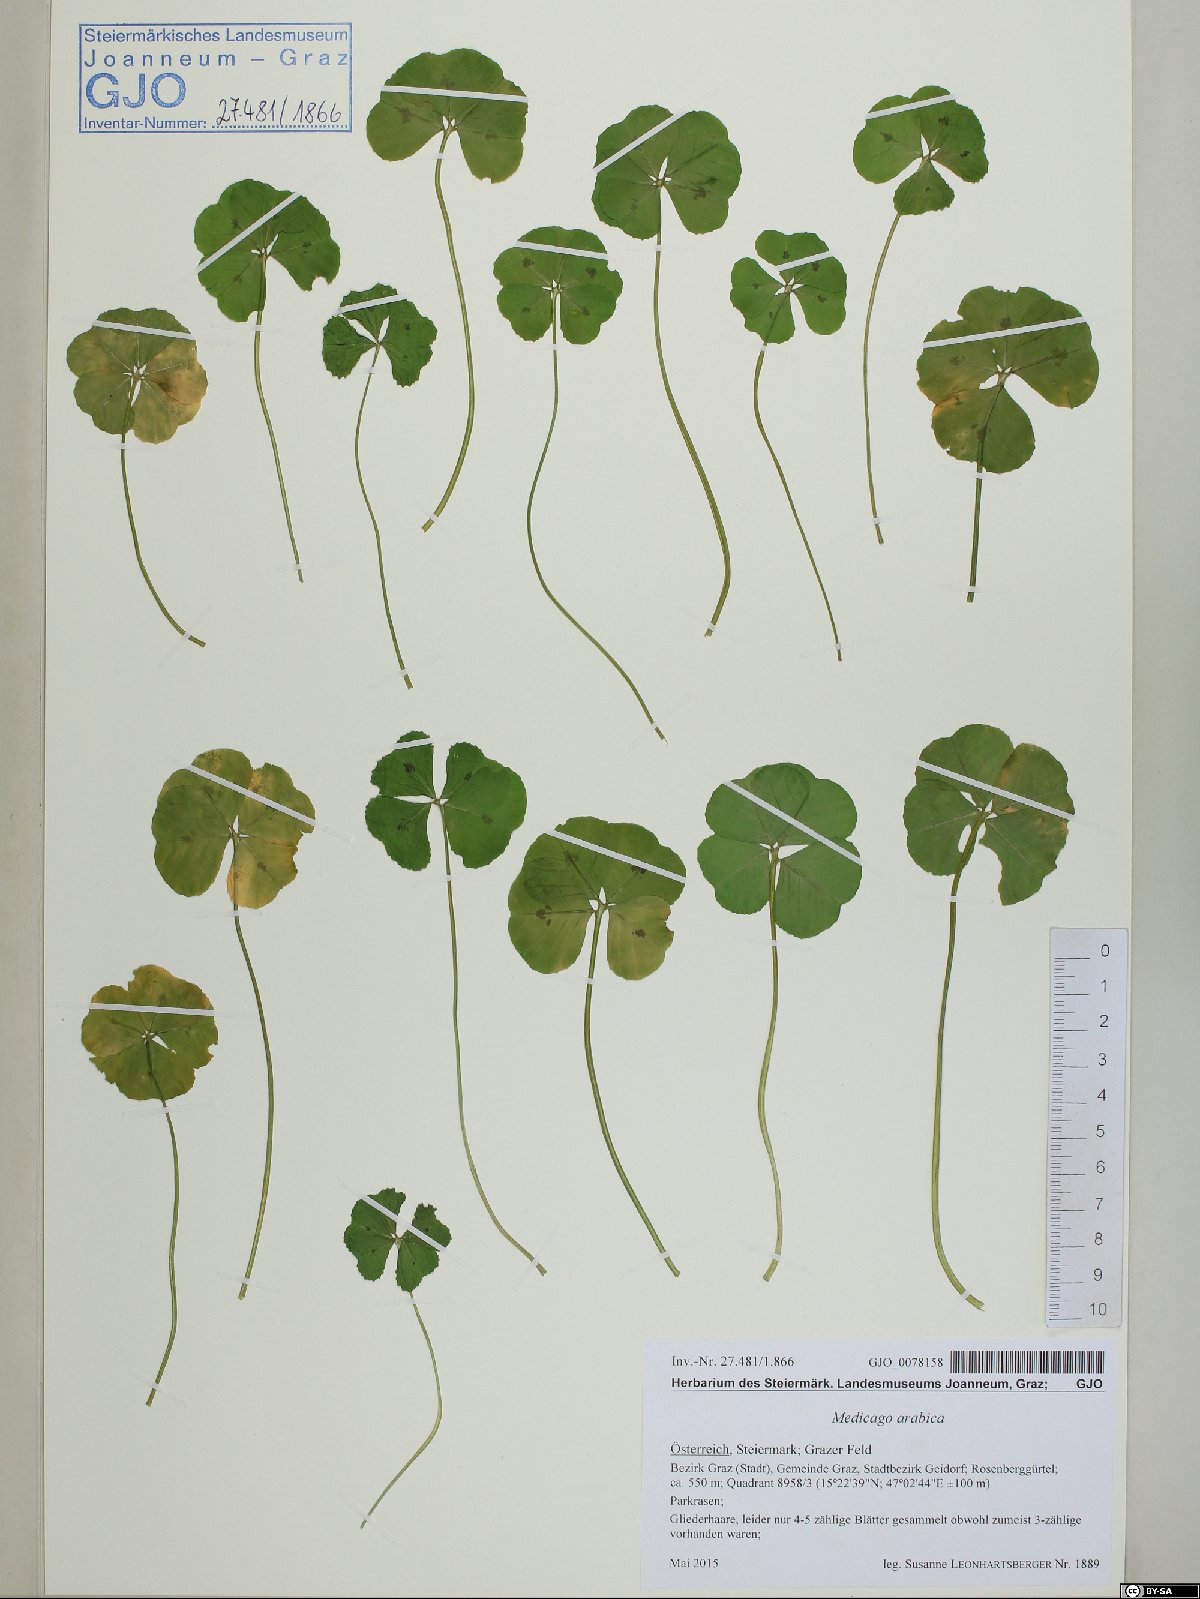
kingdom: Plantae
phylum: Tracheophyta
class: Magnoliopsida
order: Fabales
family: Fabaceae
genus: Medicago
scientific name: Medicago arabica
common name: Spotted medick
